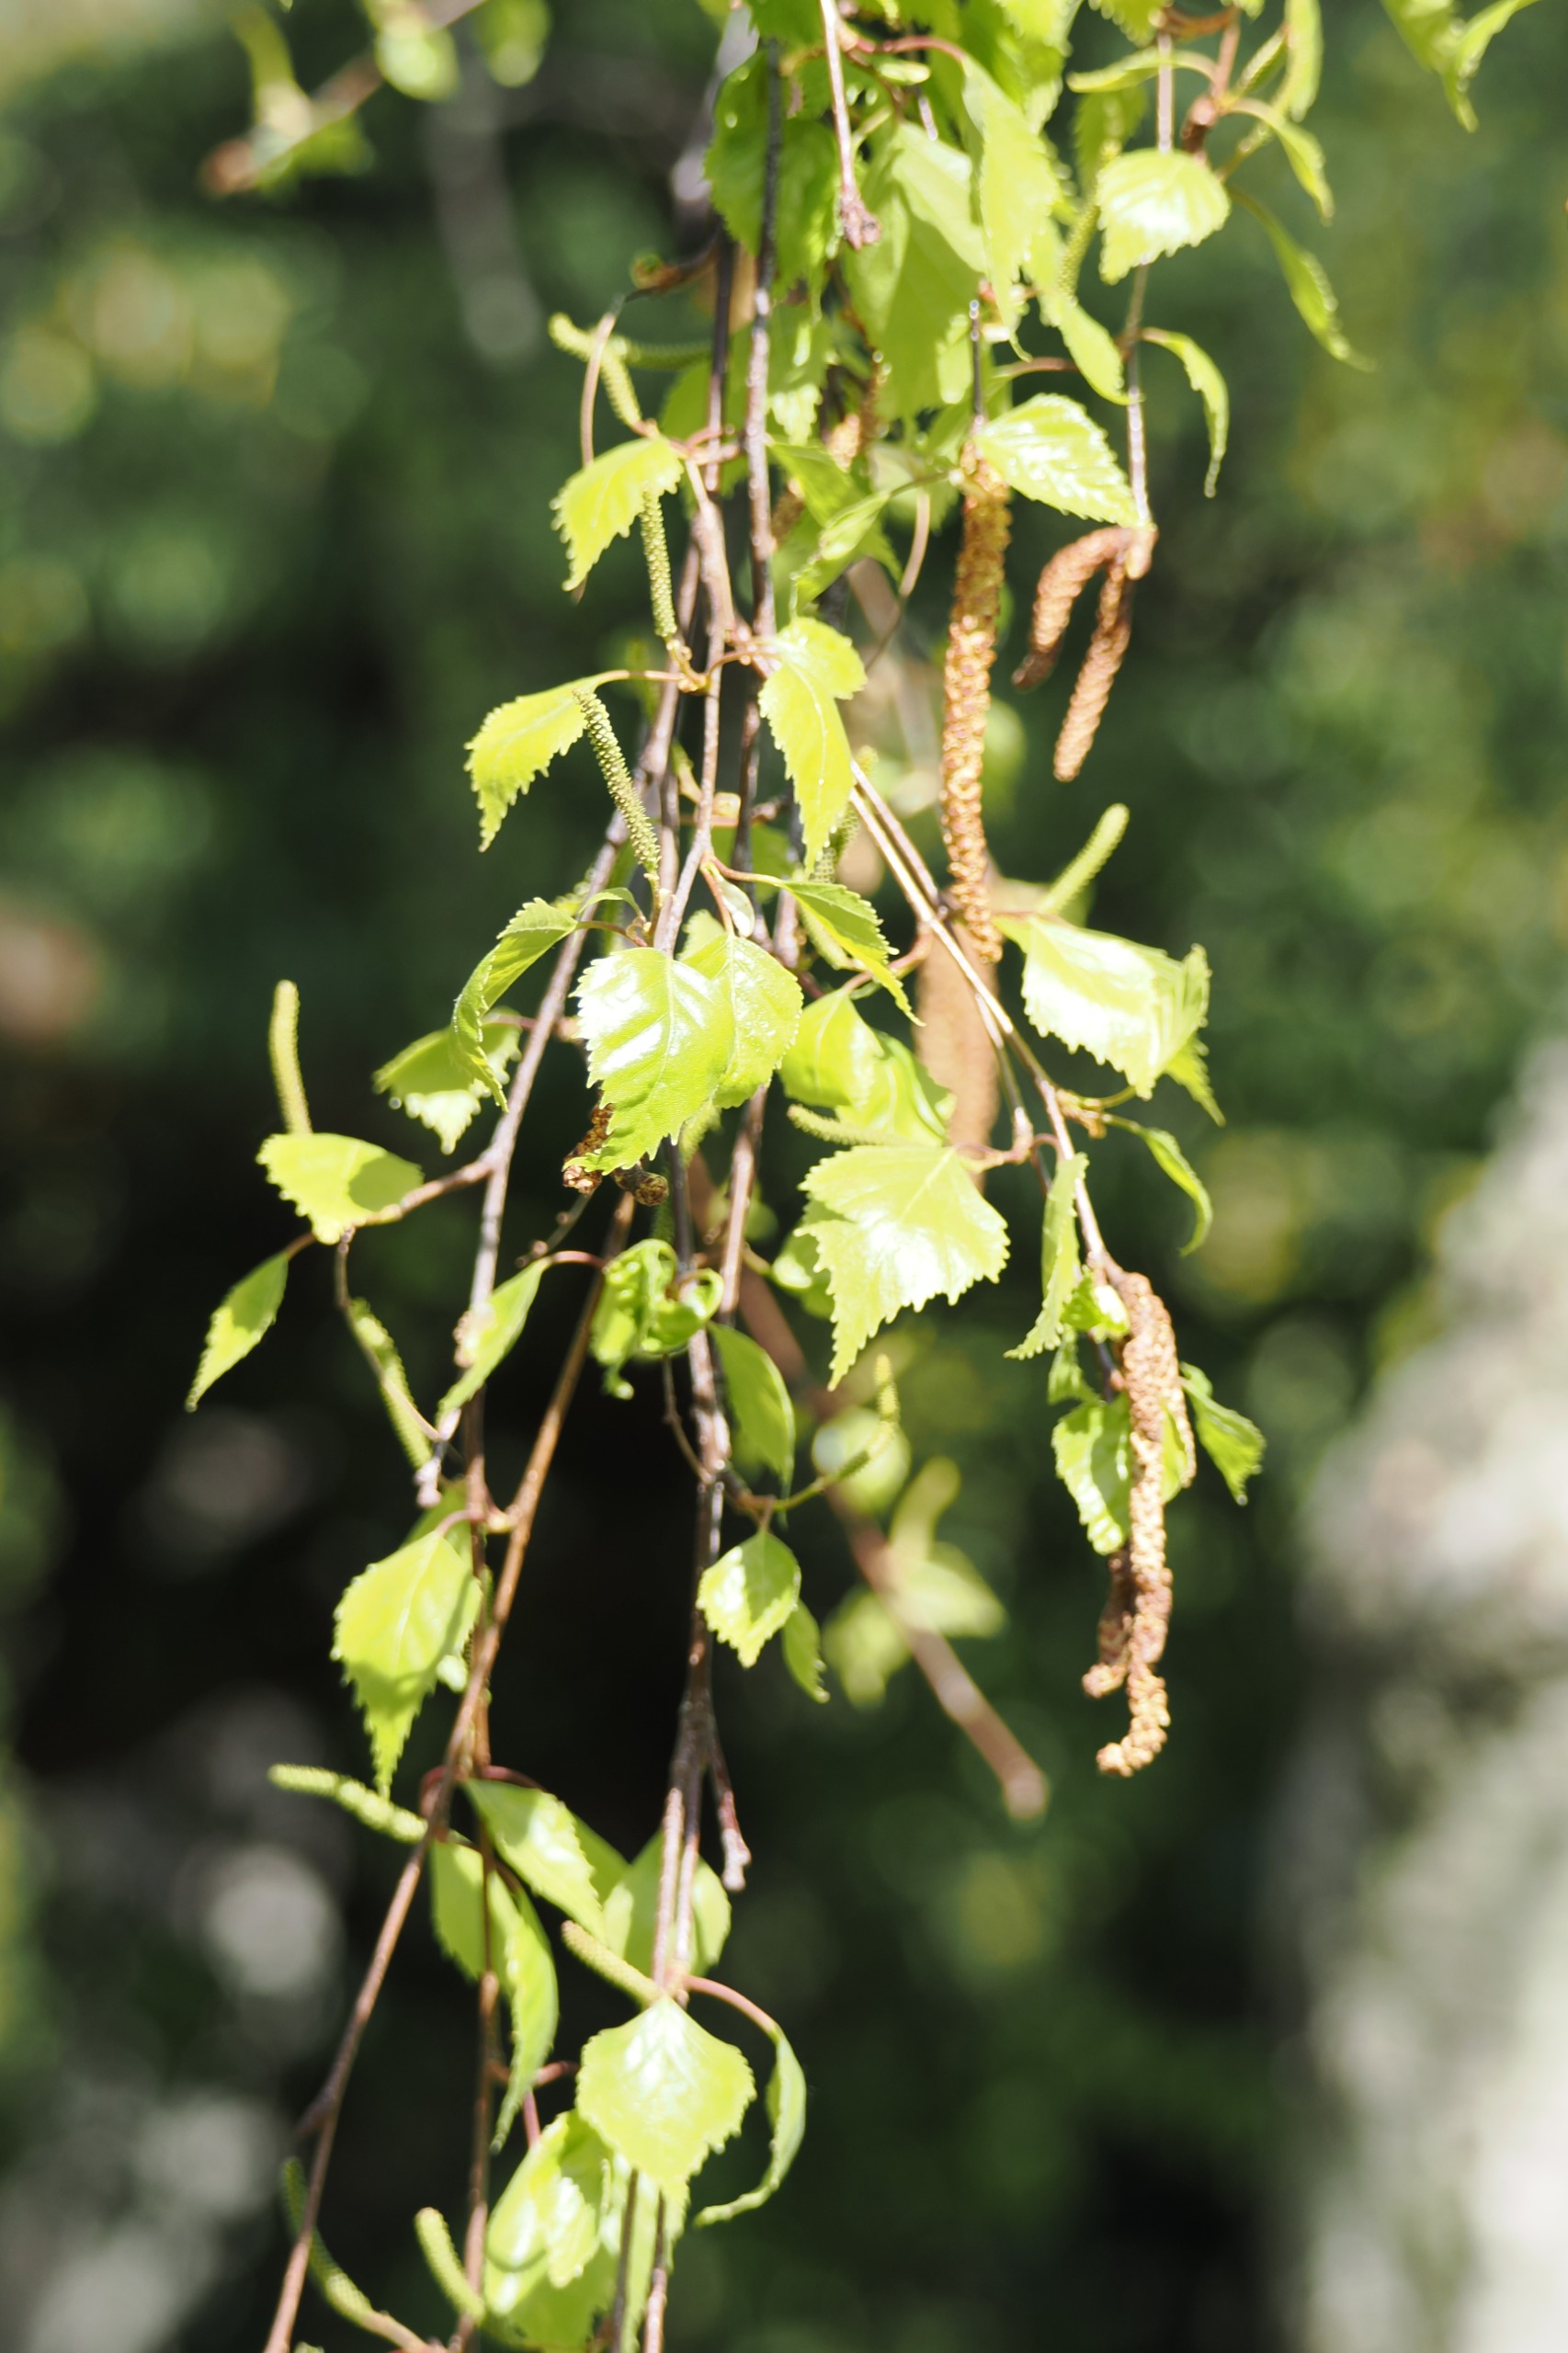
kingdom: Plantae
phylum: Tracheophyta
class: Magnoliopsida
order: Fagales
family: Betulaceae
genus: Betula
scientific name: Betula pendula
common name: Vorte-birk
